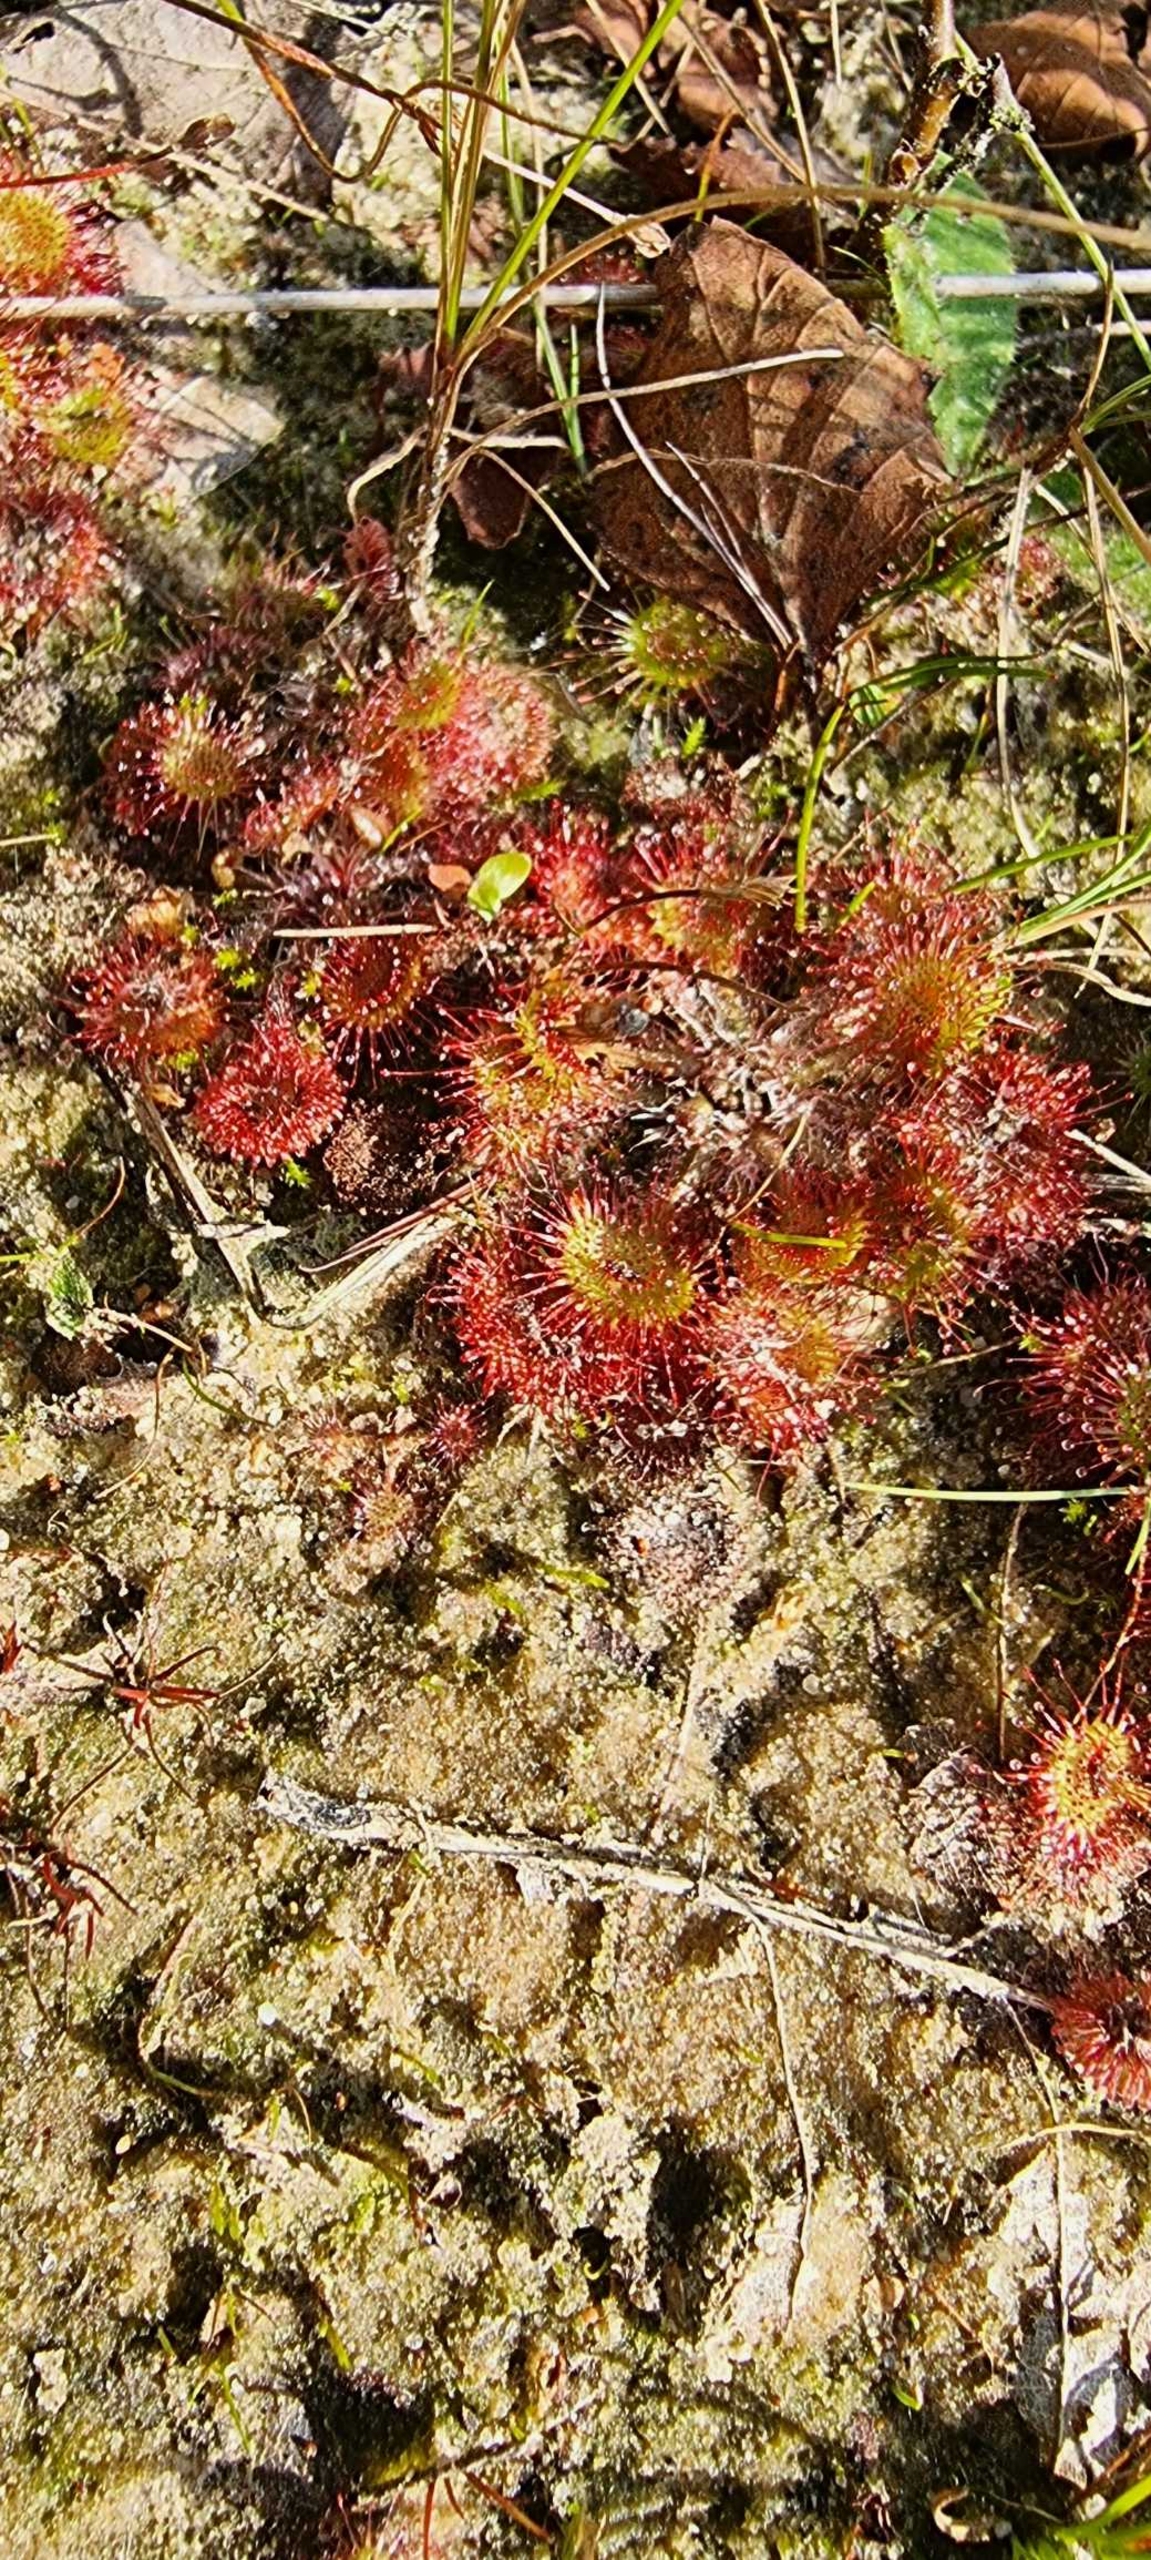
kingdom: Plantae
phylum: Tracheophyta
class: Magnoliopsida
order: Caryophyllales
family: Droseraceae
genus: Drosera
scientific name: Drosera rotundifolia
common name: Rundbladet soldug
